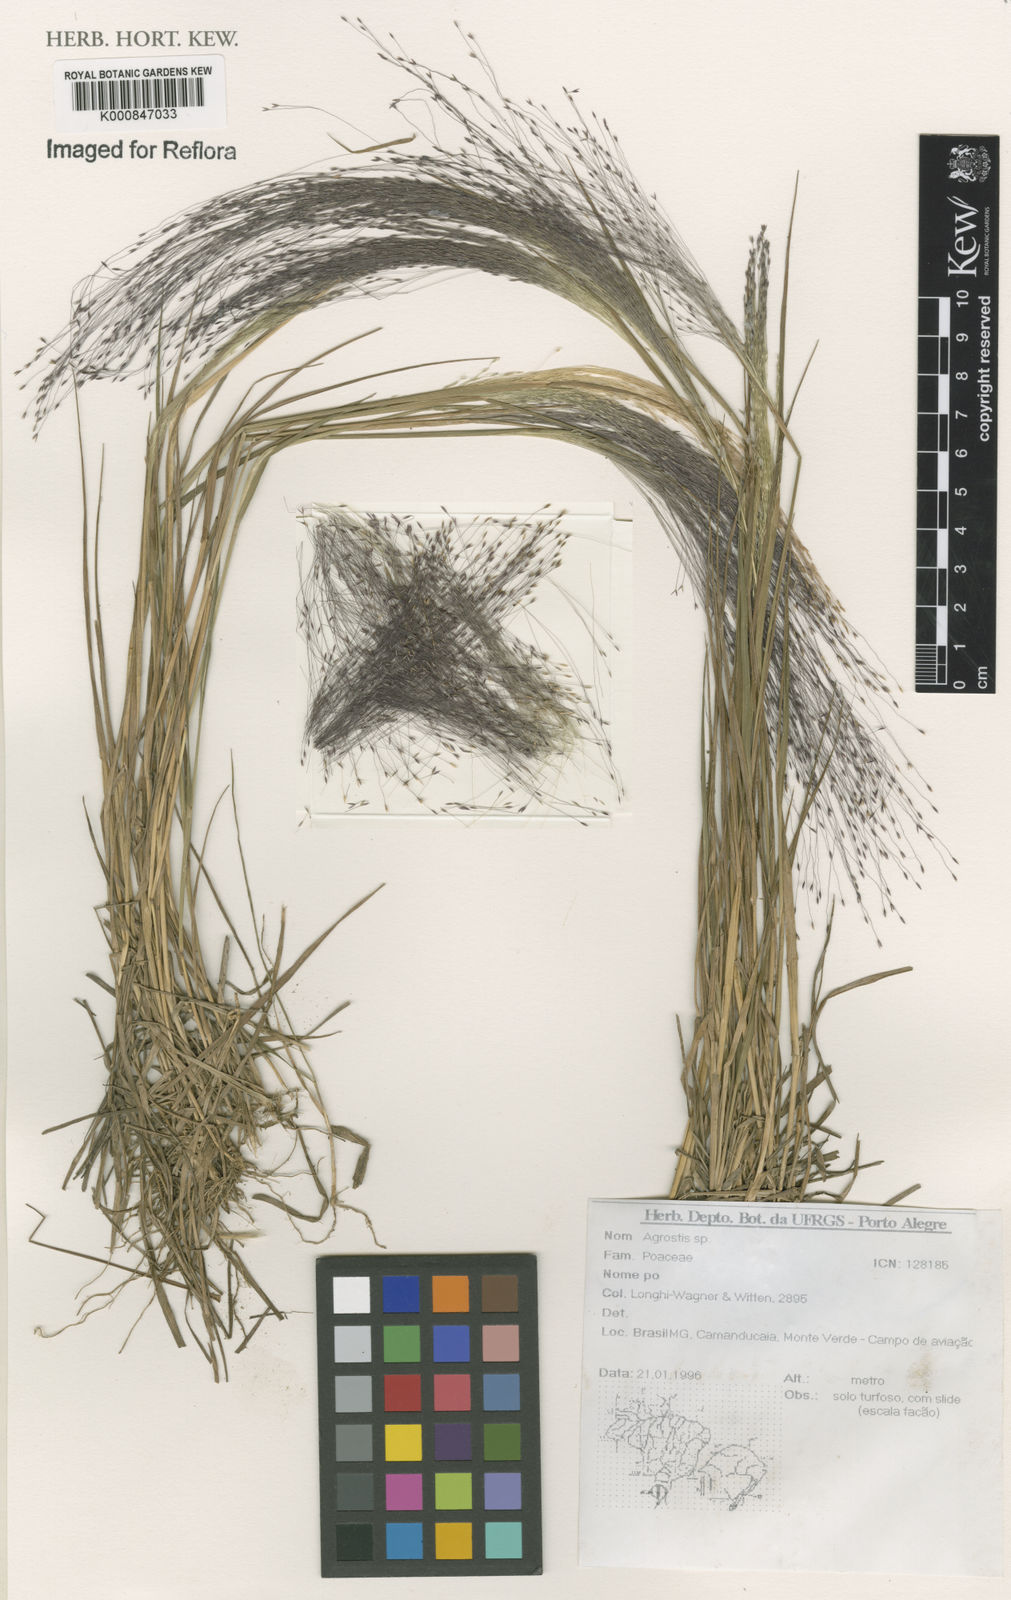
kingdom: Plantae
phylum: Tracheophyta
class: Liliopsida
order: Poales
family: Poaceae
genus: Agrostis
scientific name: Agrostis
